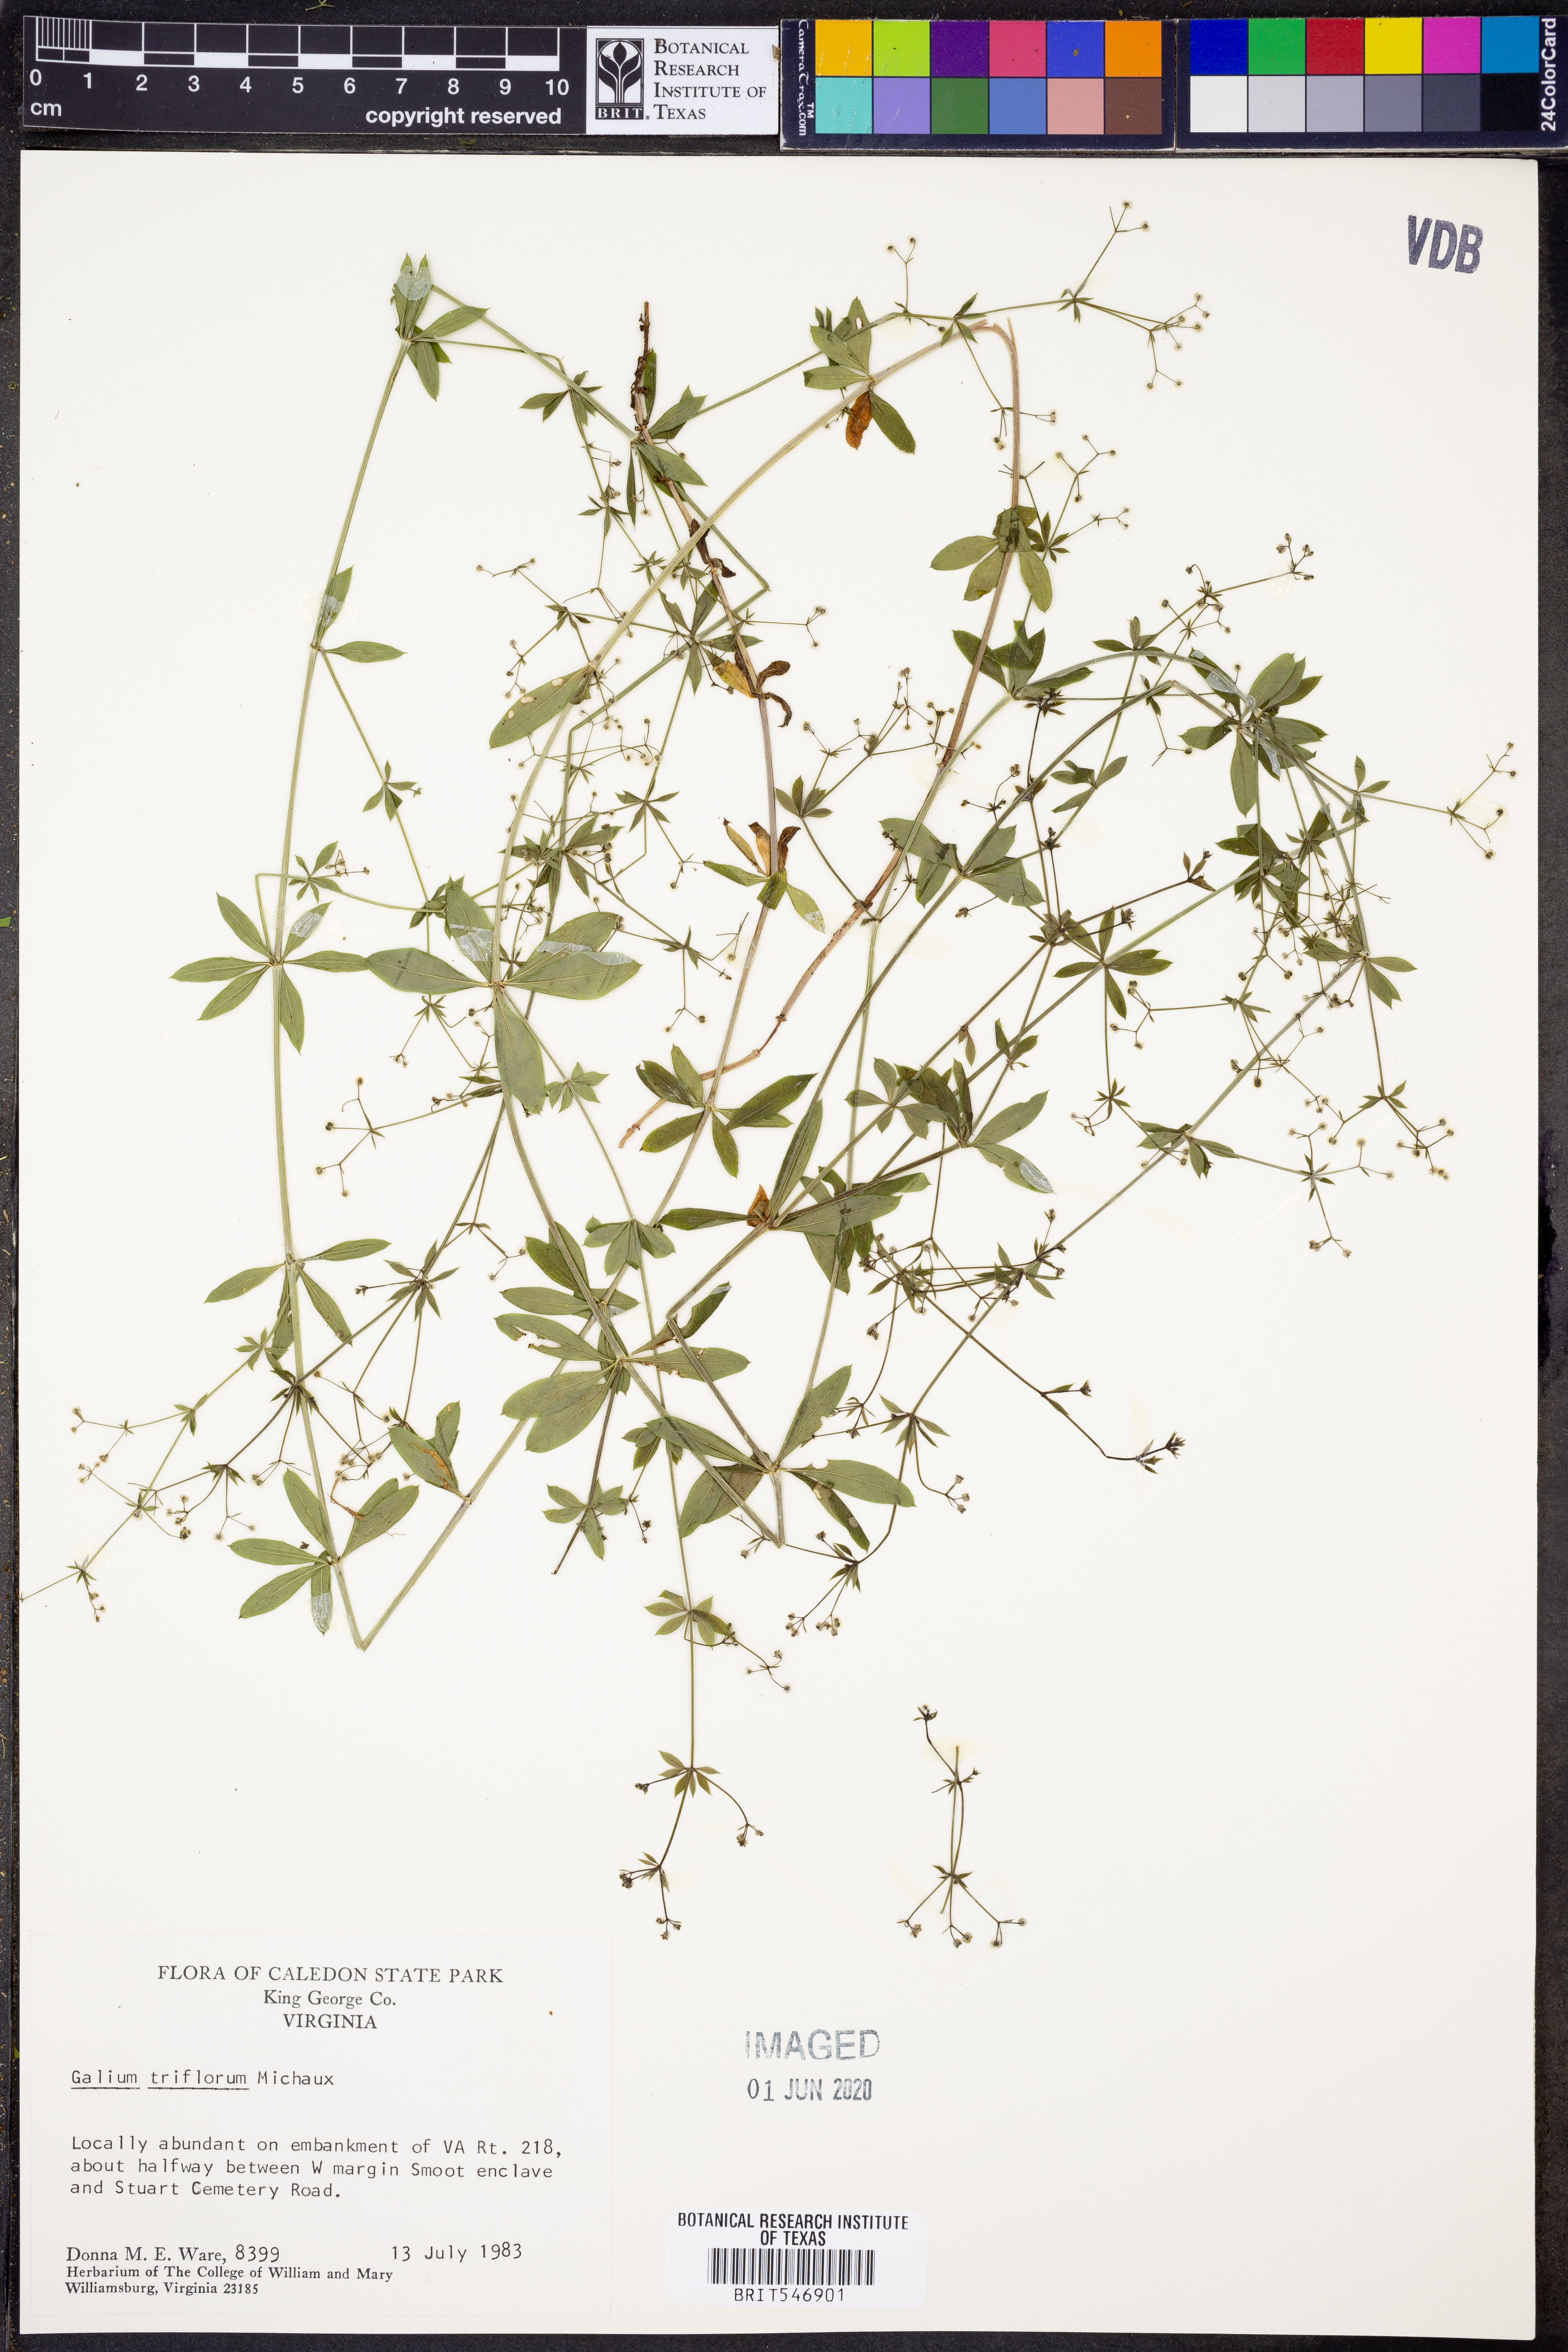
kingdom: Plantae
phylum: Tracheophyta
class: Magnoliopsida
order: Gentianales
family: Rubiaceae
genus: Galium
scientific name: Galium triflorum
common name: Fragrant bedstraw
